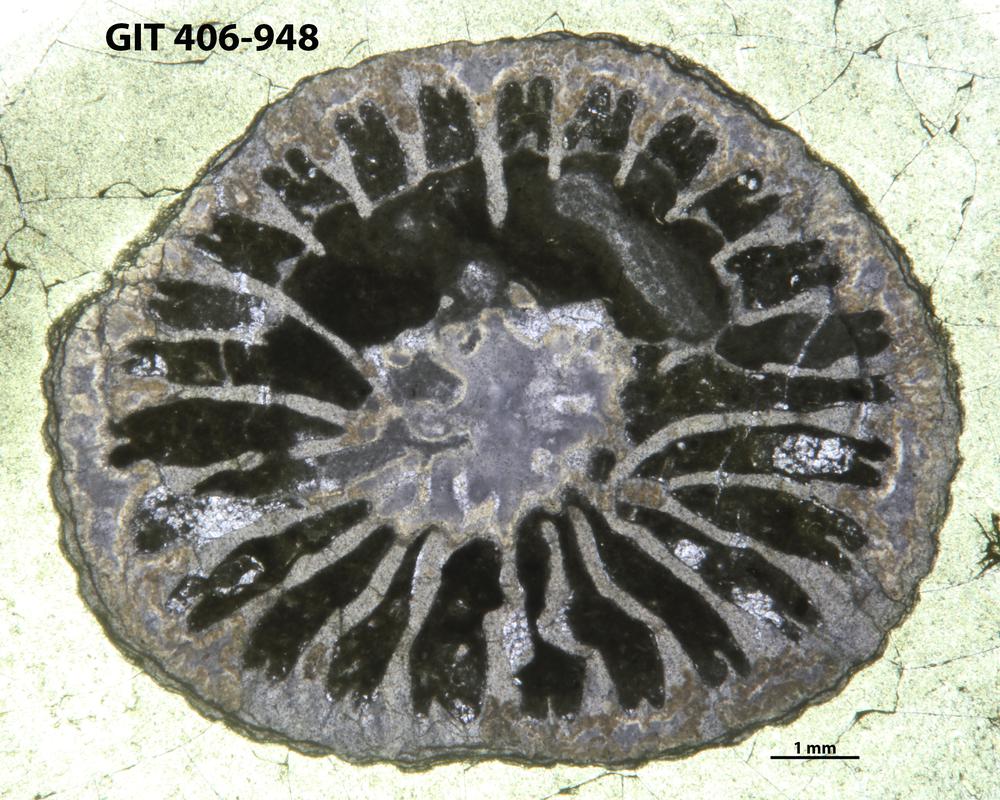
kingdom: Animalia
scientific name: Animalia
